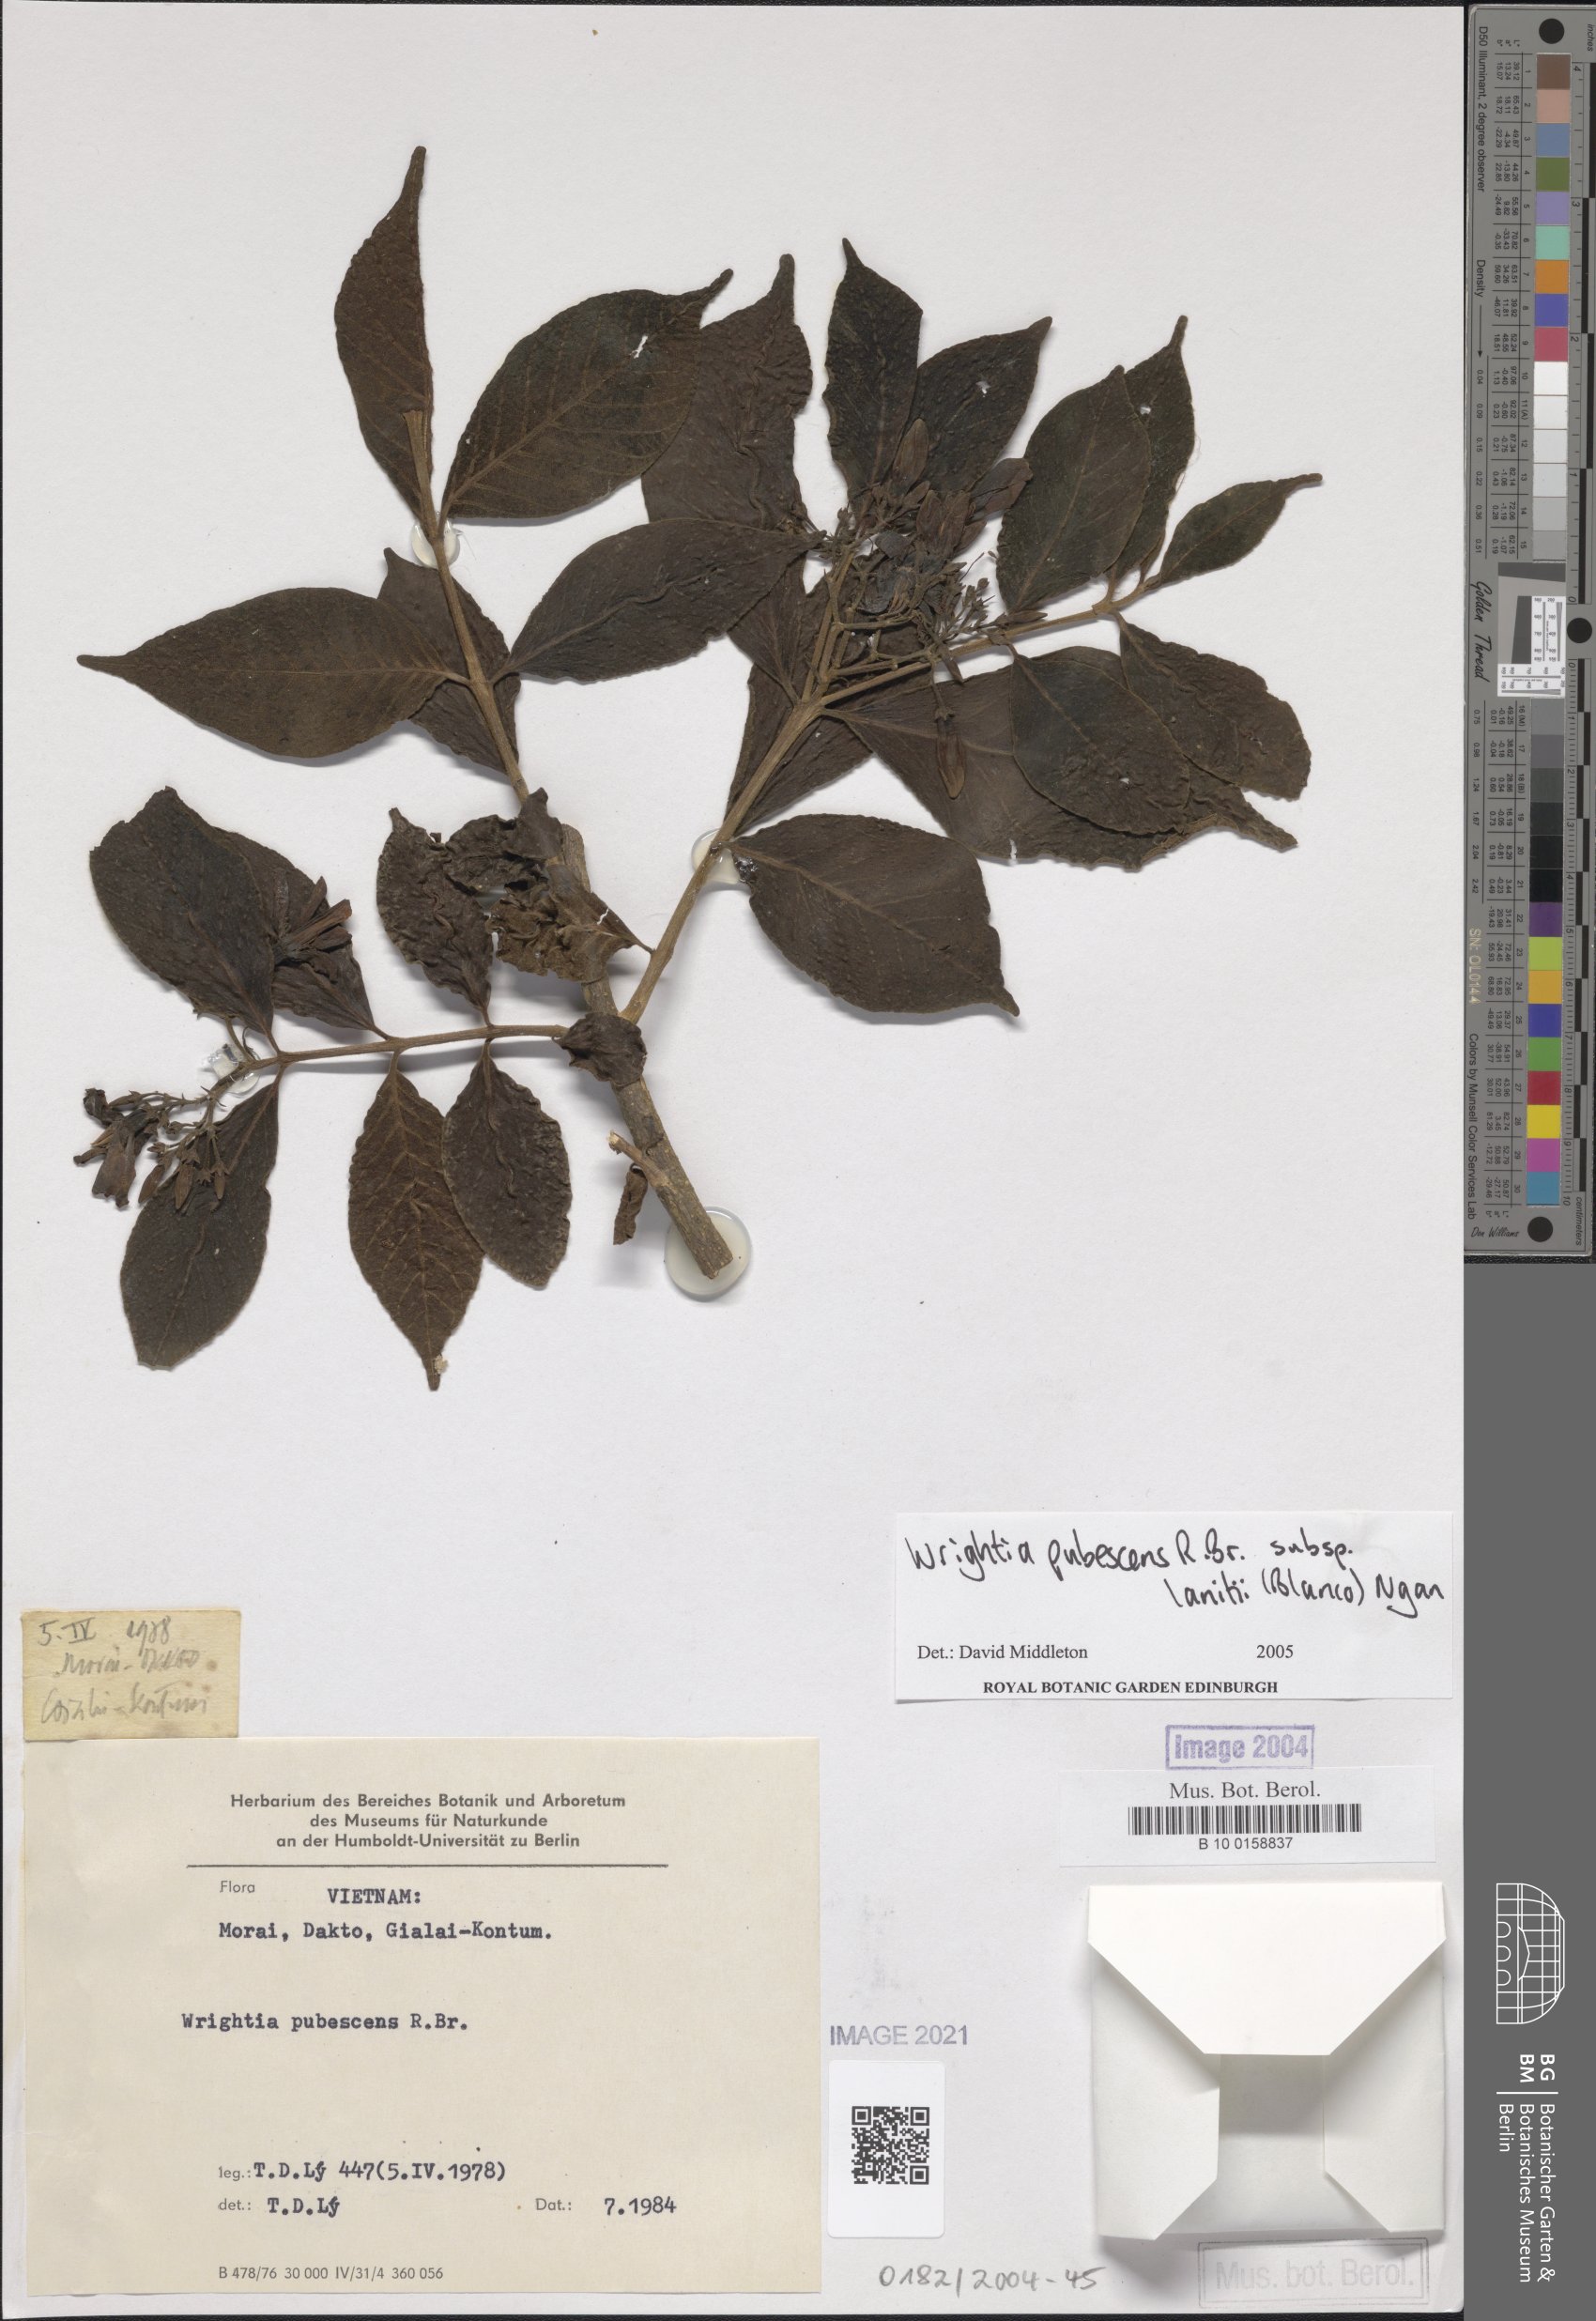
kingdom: Plantae
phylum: Tracheophyta
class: Magnoliopsida
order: Gentianales
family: Apocynaceae
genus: Wrightia
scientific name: Wrightia pubescens
